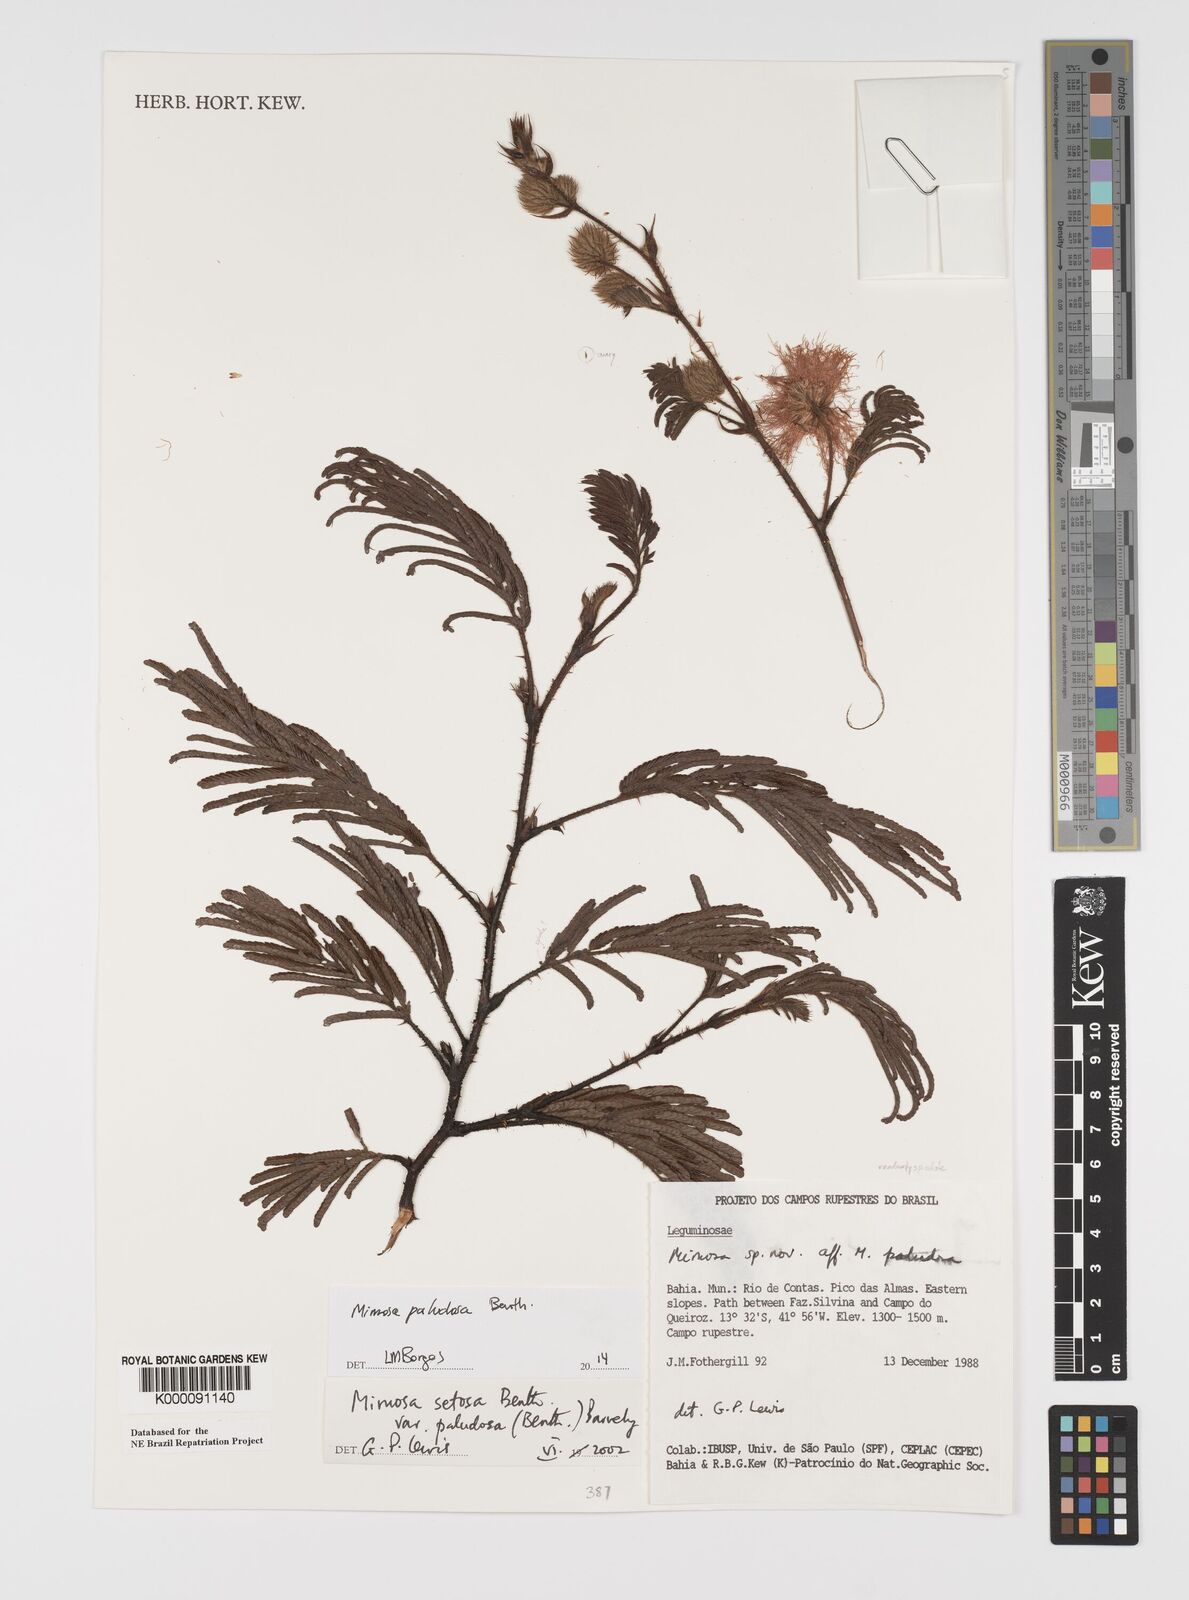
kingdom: Plantae
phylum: Tracheophyta
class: Magnoliopsida
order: Fabales
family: Fabaceae
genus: Mimosa
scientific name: Mimosa paludosa
